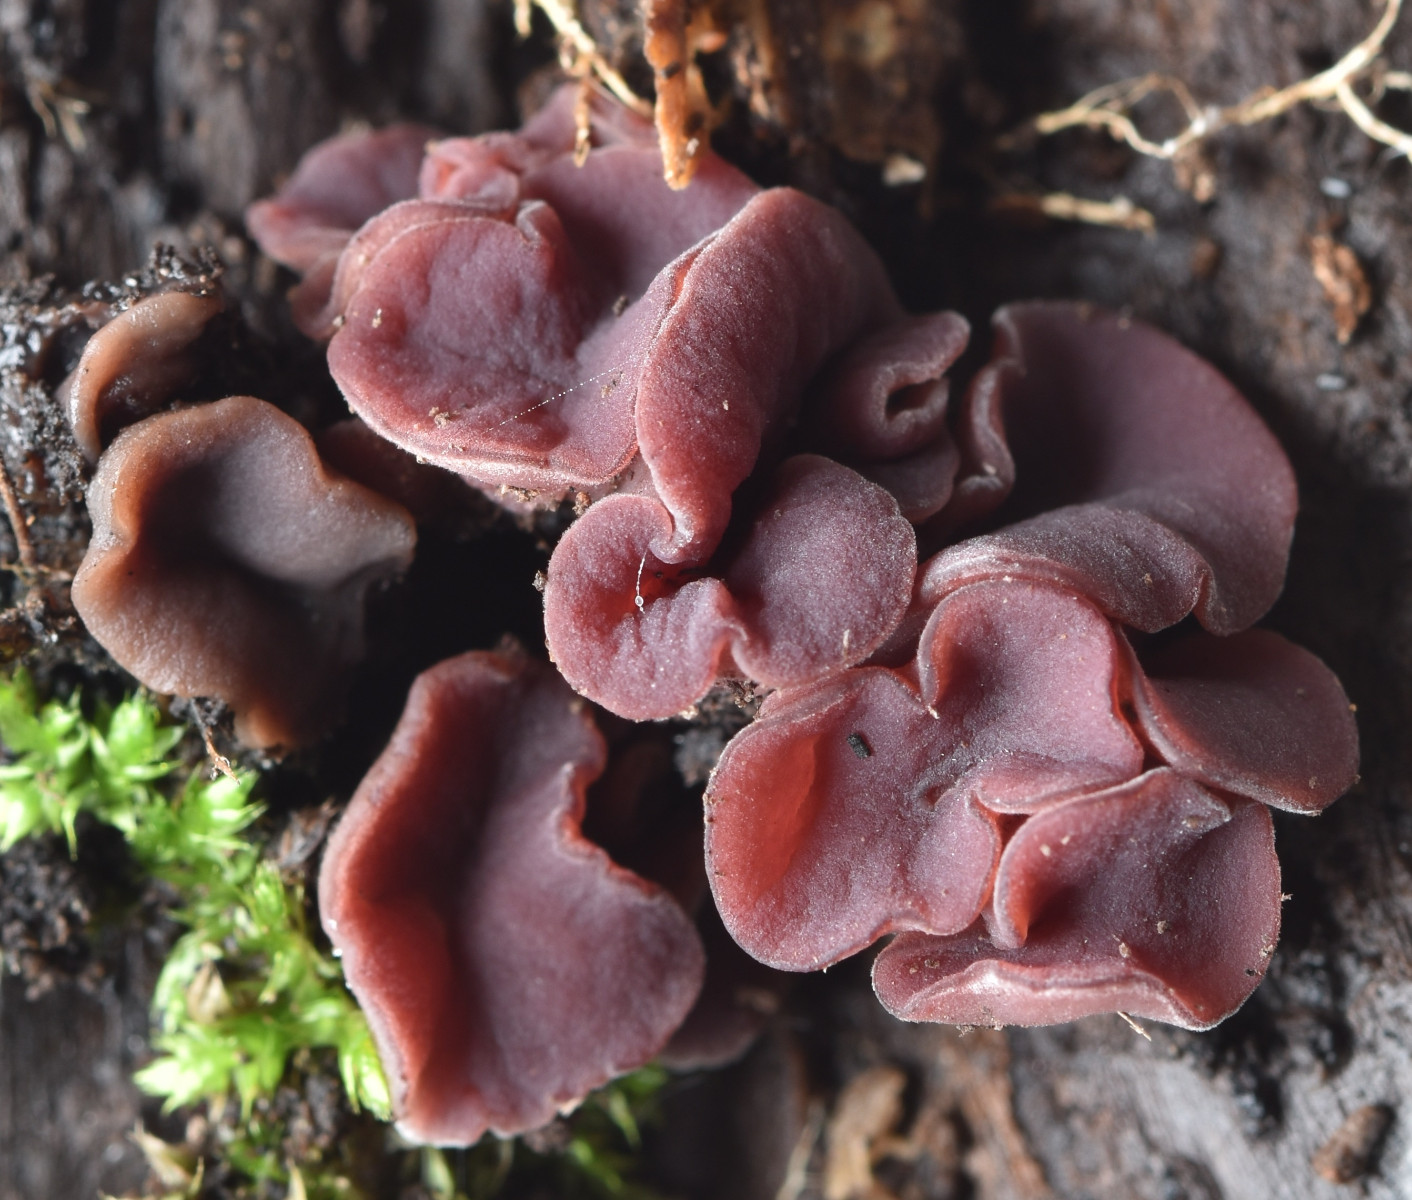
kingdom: Fungi
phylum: Ascomycota
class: Leotiomycetes
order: Helotiales
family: Gelatinodiscaceae
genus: Ascocoryne
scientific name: Ascocoryne cylichnium
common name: stor sejskive
